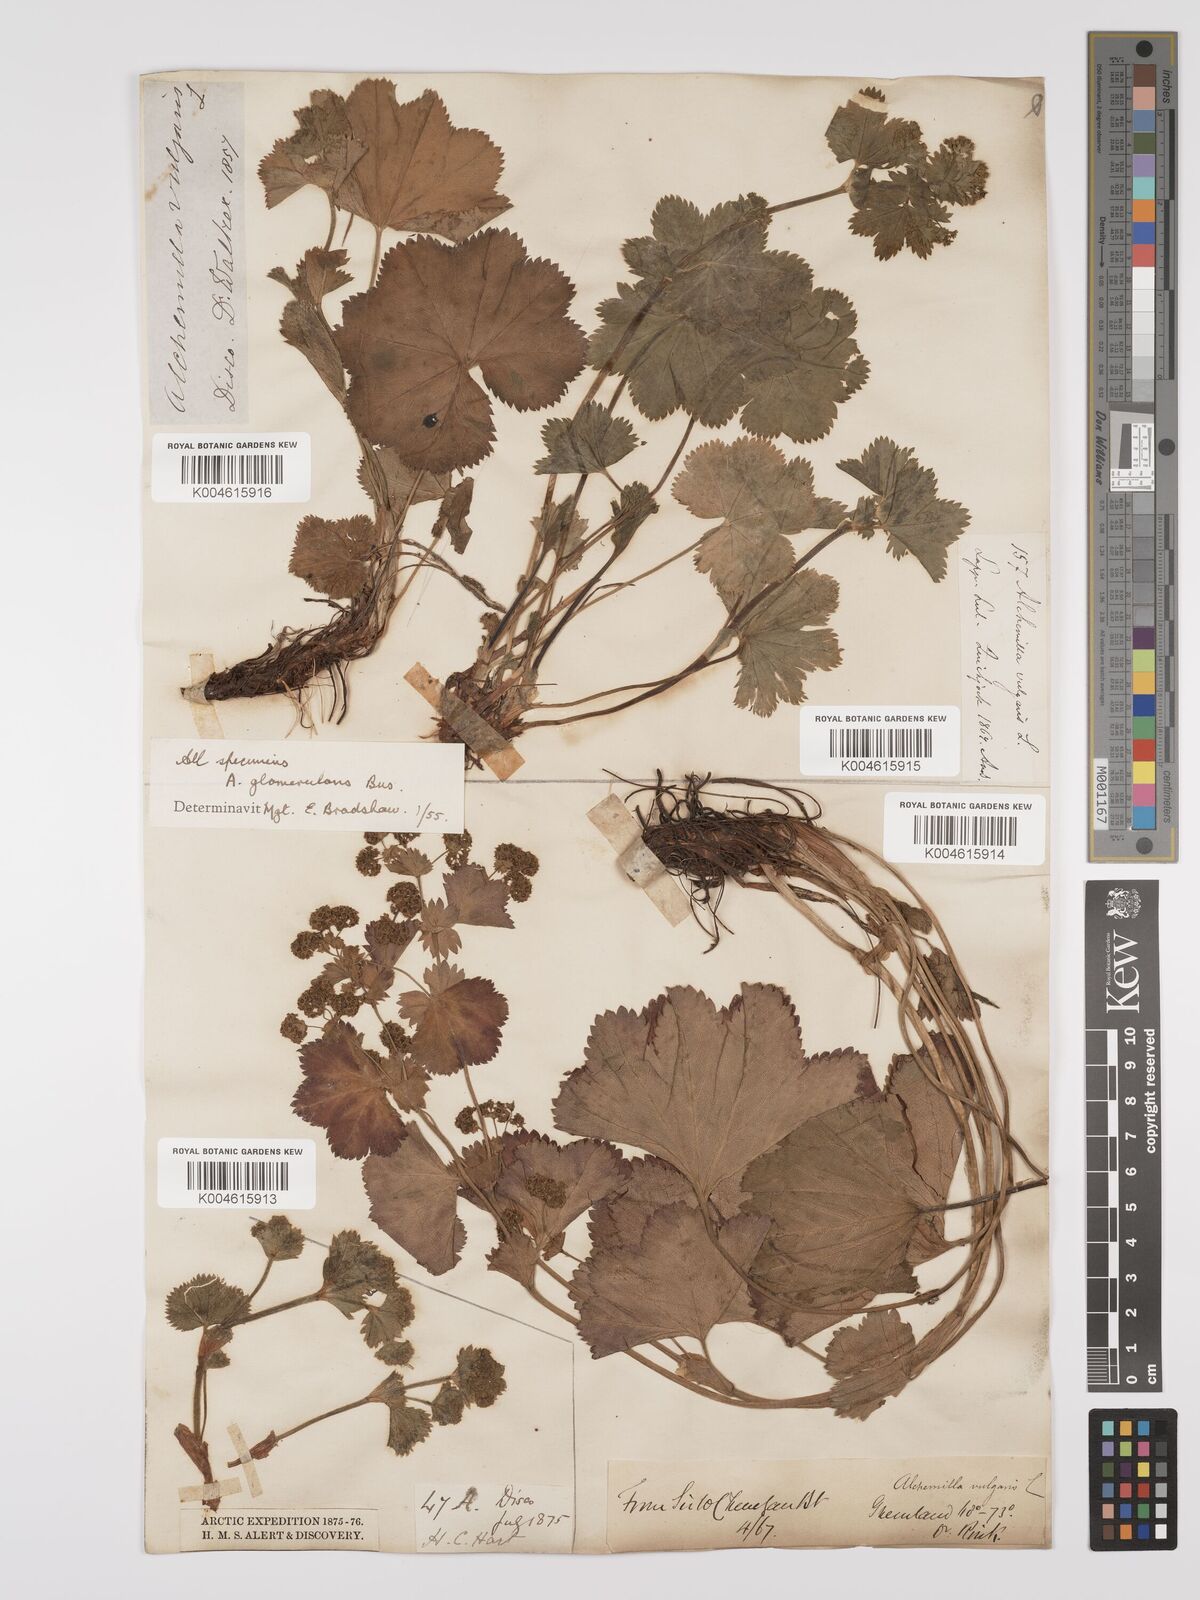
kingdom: Plantae
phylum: Tracheophyta
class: Magnoliopsida
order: Rosales
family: Rosaceae
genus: Alchemilla
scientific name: Alchemilla vulgaris
